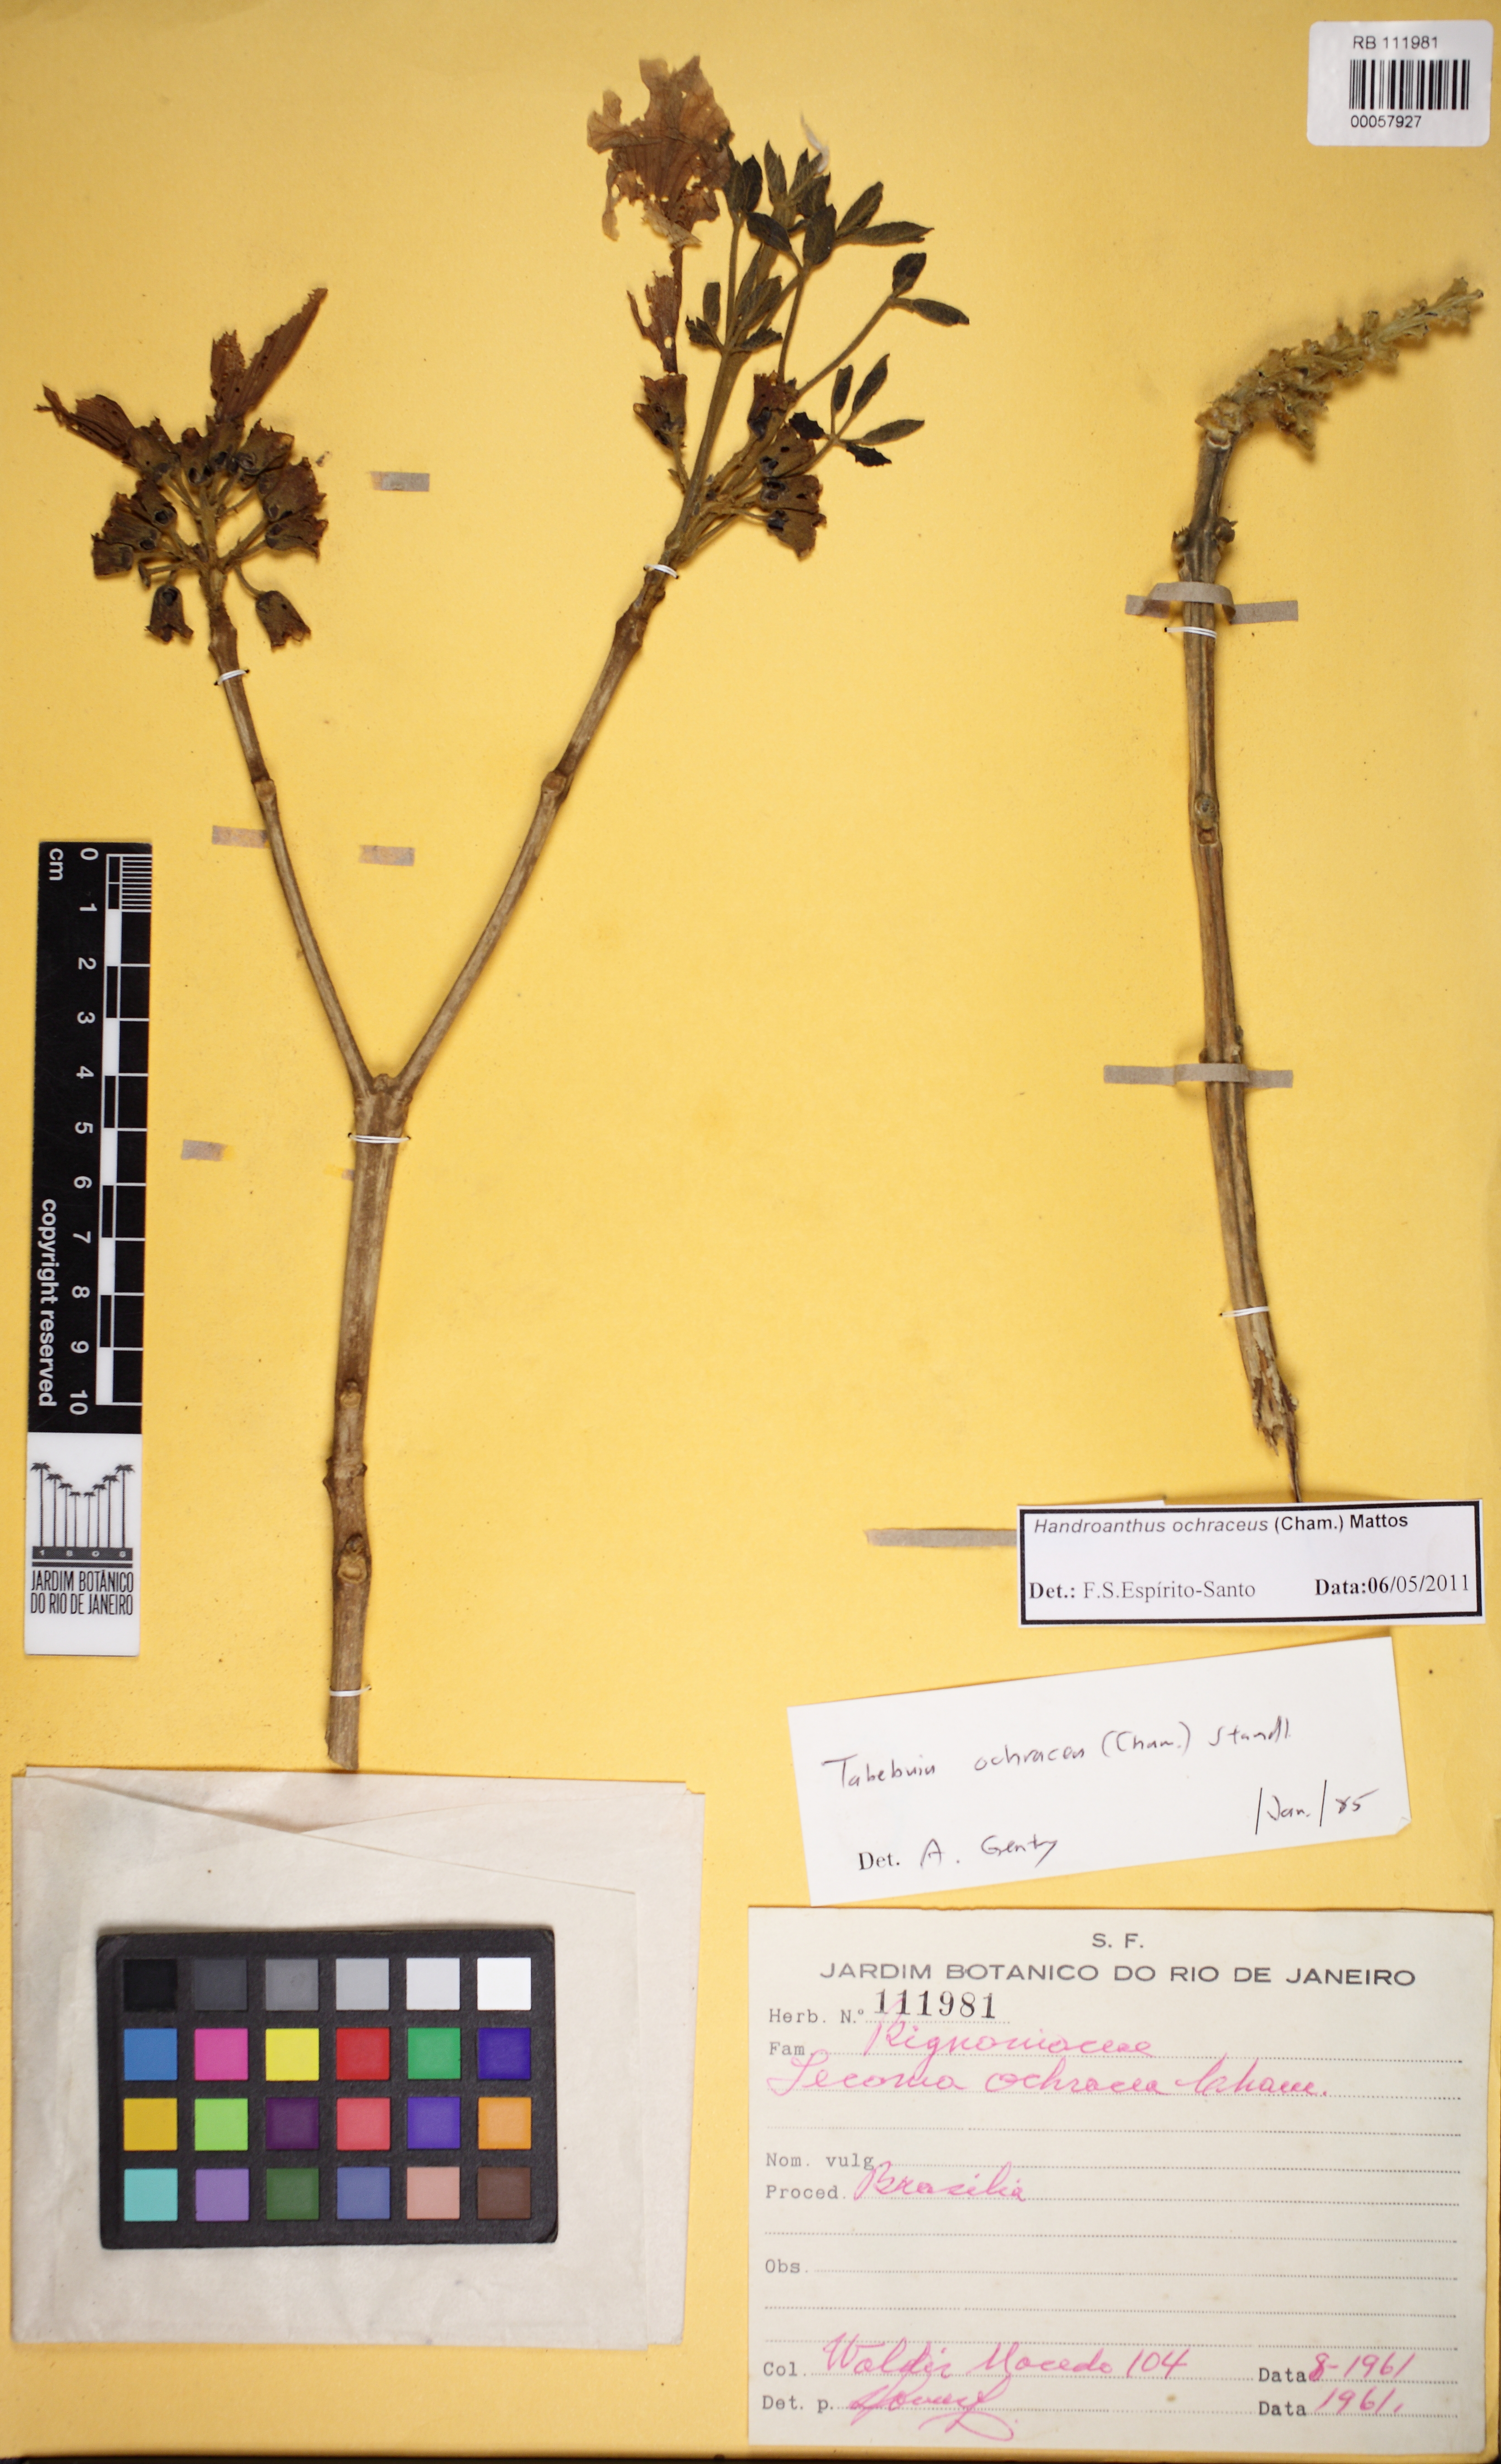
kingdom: Plantae
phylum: Tracheophyta
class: Magnoliopsida
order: Lamiales
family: Bignoniaceae
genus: Handroanthus
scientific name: Handroanthus ochraceus
